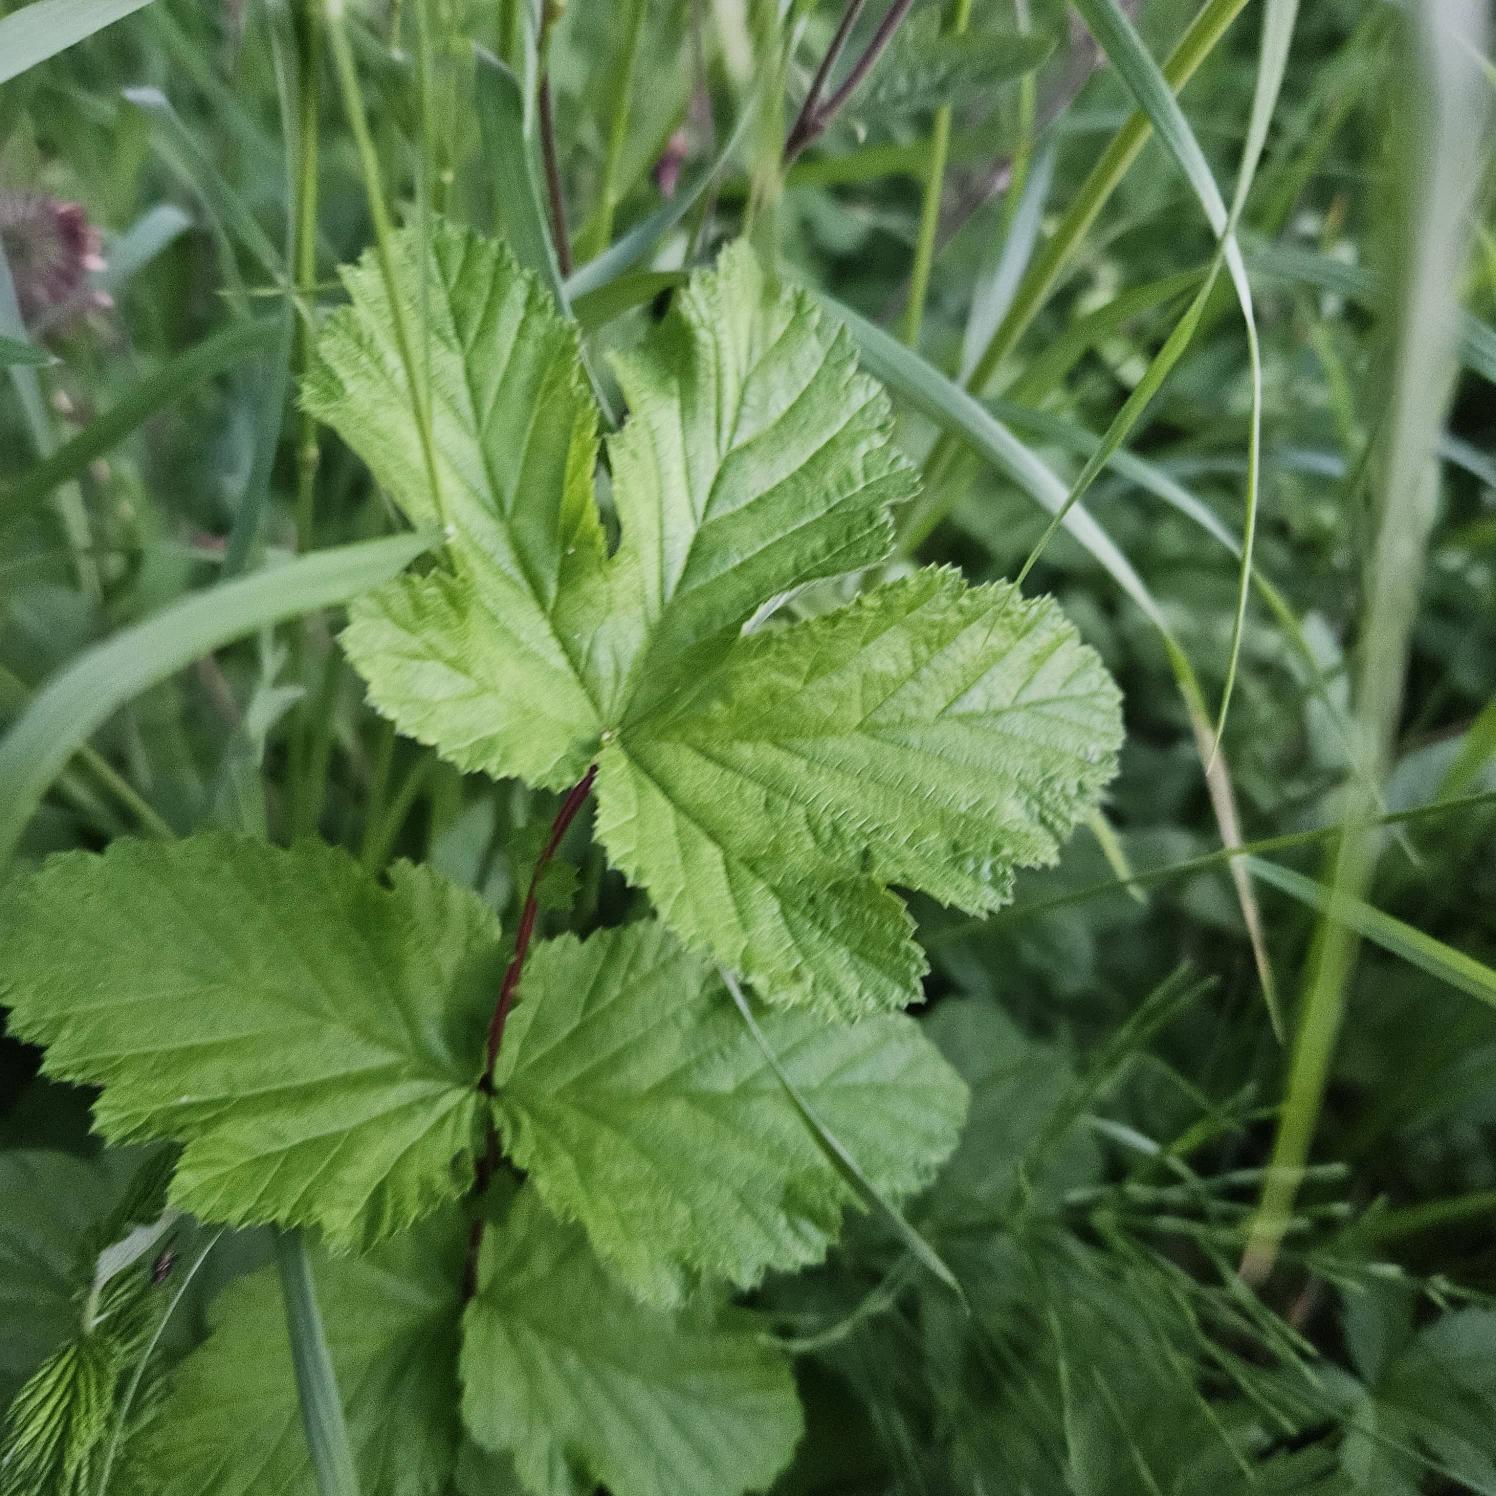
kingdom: Plantae
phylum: Tracheophyta
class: Magnoliopsida
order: Rosales
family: Rosaceae
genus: Filipendula
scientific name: Filipendula ulmaria
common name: Almindelig mjødurt
